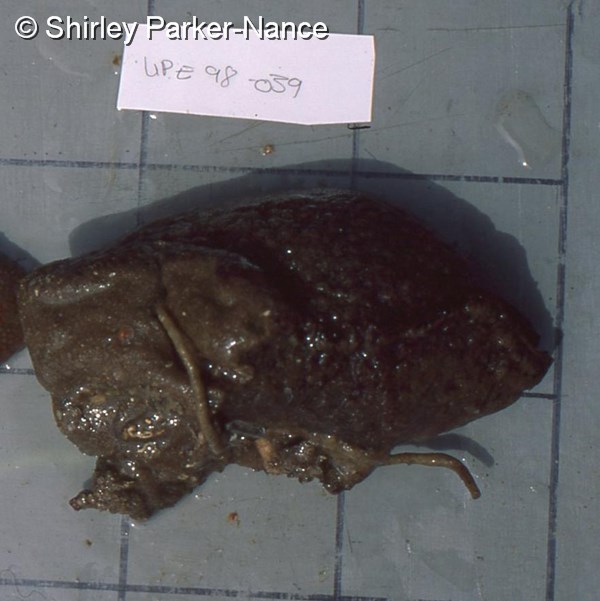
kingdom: Animalia
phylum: Chordata
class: Ascidiacea
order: Aplousobranchia
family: Polyclinidae
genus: Aplidium
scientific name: Aplidium
